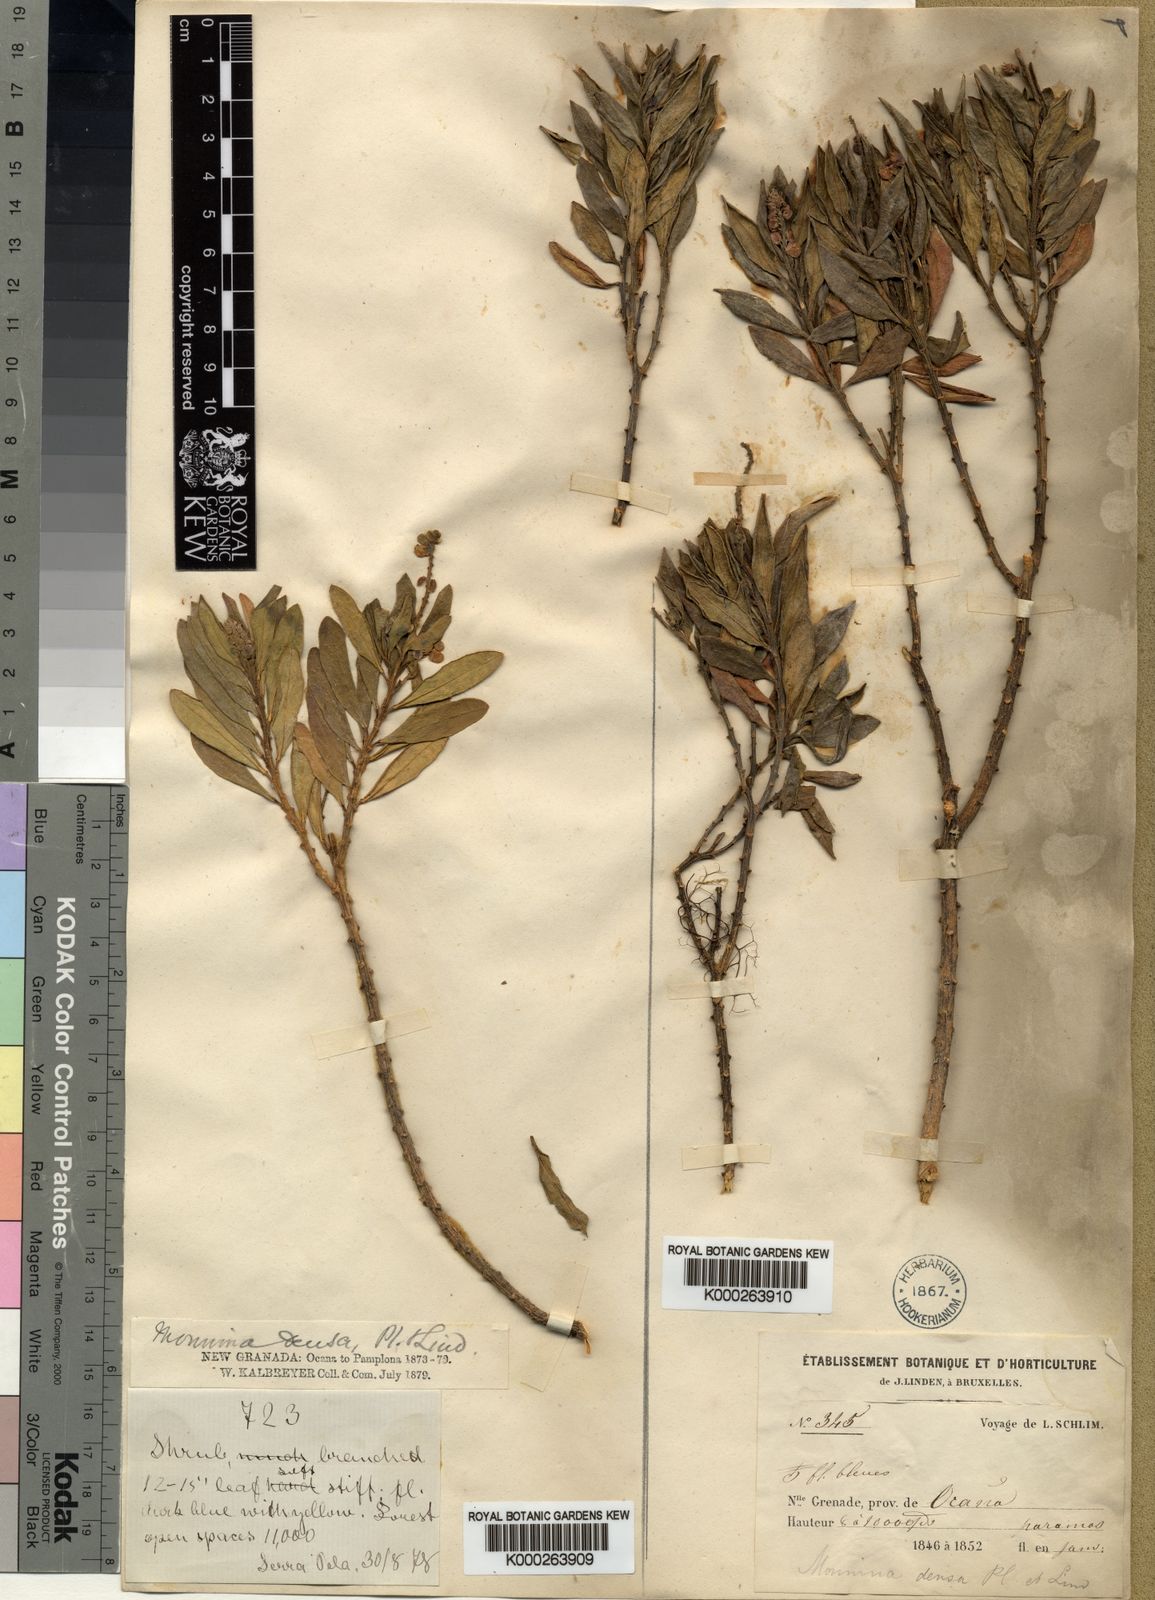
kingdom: Plantae
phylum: Tracheophyta
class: Magnoliopsida
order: Fabales
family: Polygalaceae
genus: Monnina
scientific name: Monnina densa
